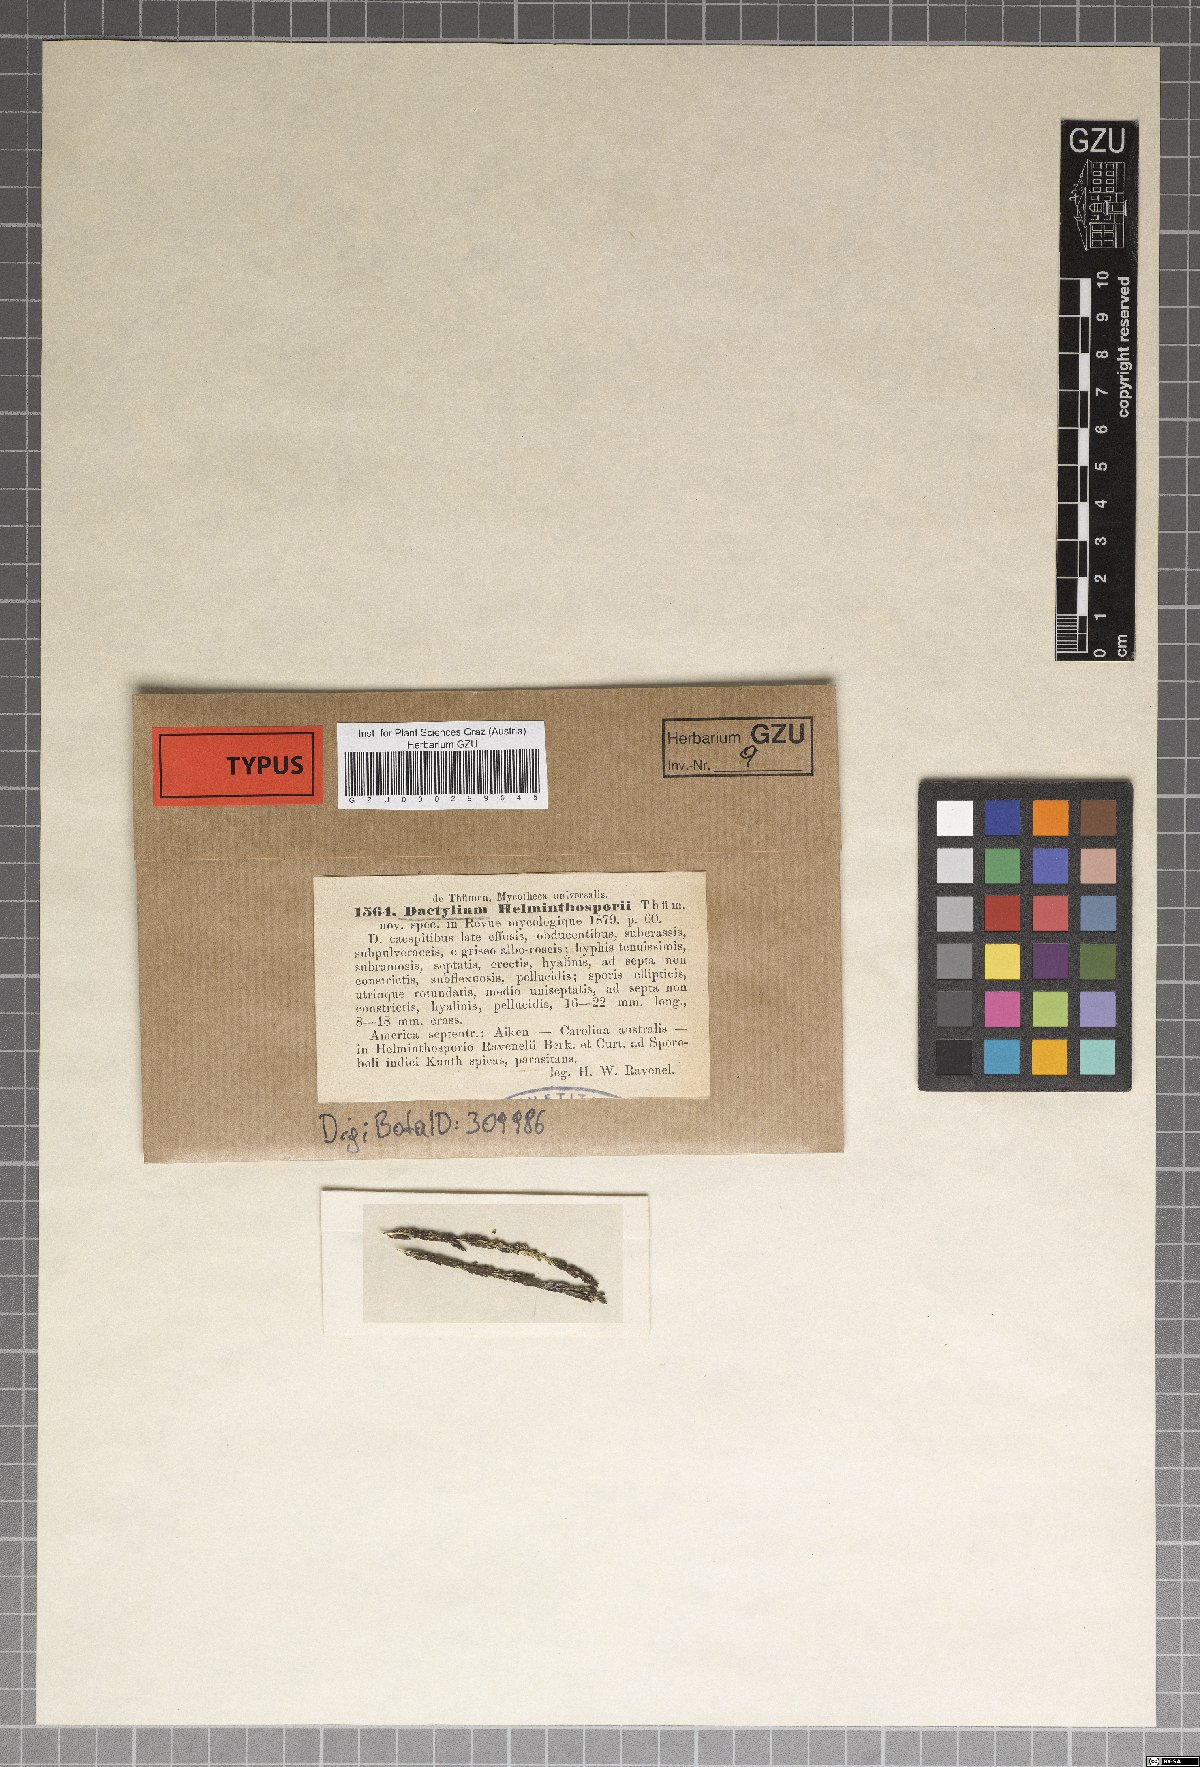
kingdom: Fungi
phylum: Ascomycota
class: Orbiliomycetes
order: Orbiliales
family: Orbiliaceae
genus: Dactylium
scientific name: Dactylium
